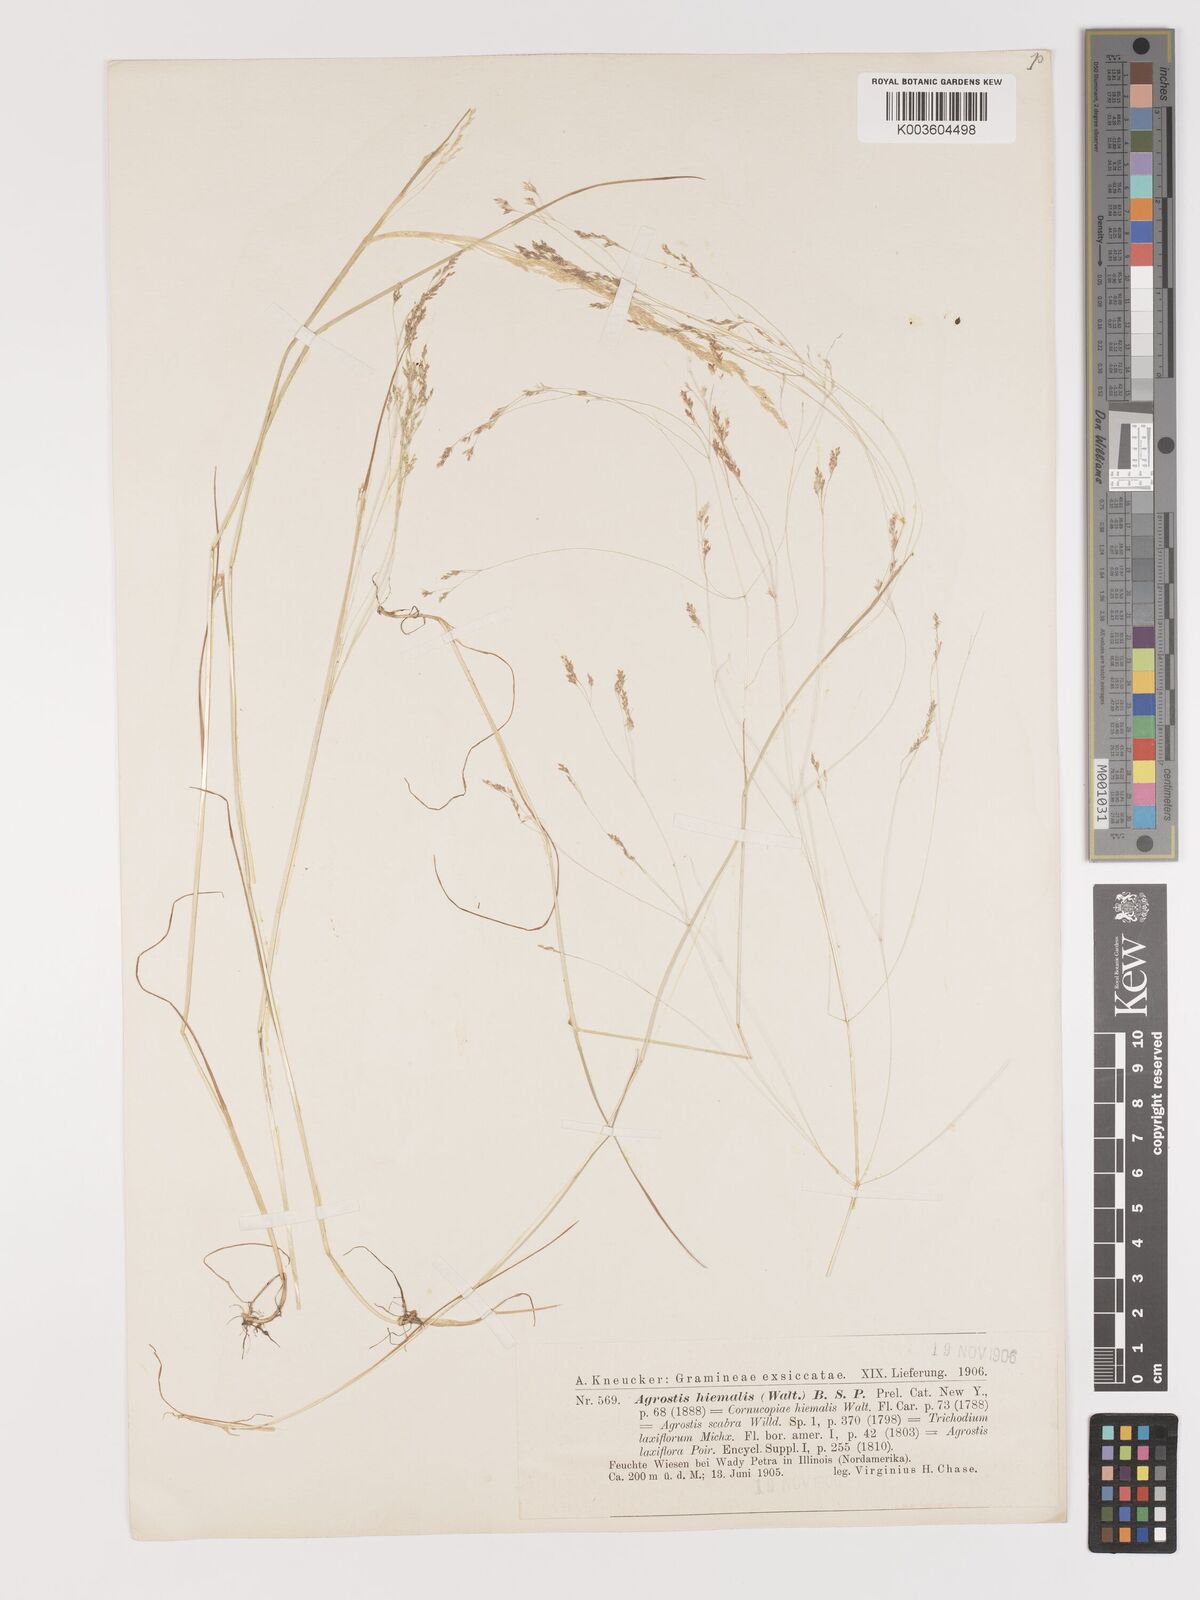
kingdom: Plantae
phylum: Tracheophyta
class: Liliopsida
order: Poales
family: Poaceae
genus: Agrostis
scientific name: Agrostis hyemalis
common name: Small bent
